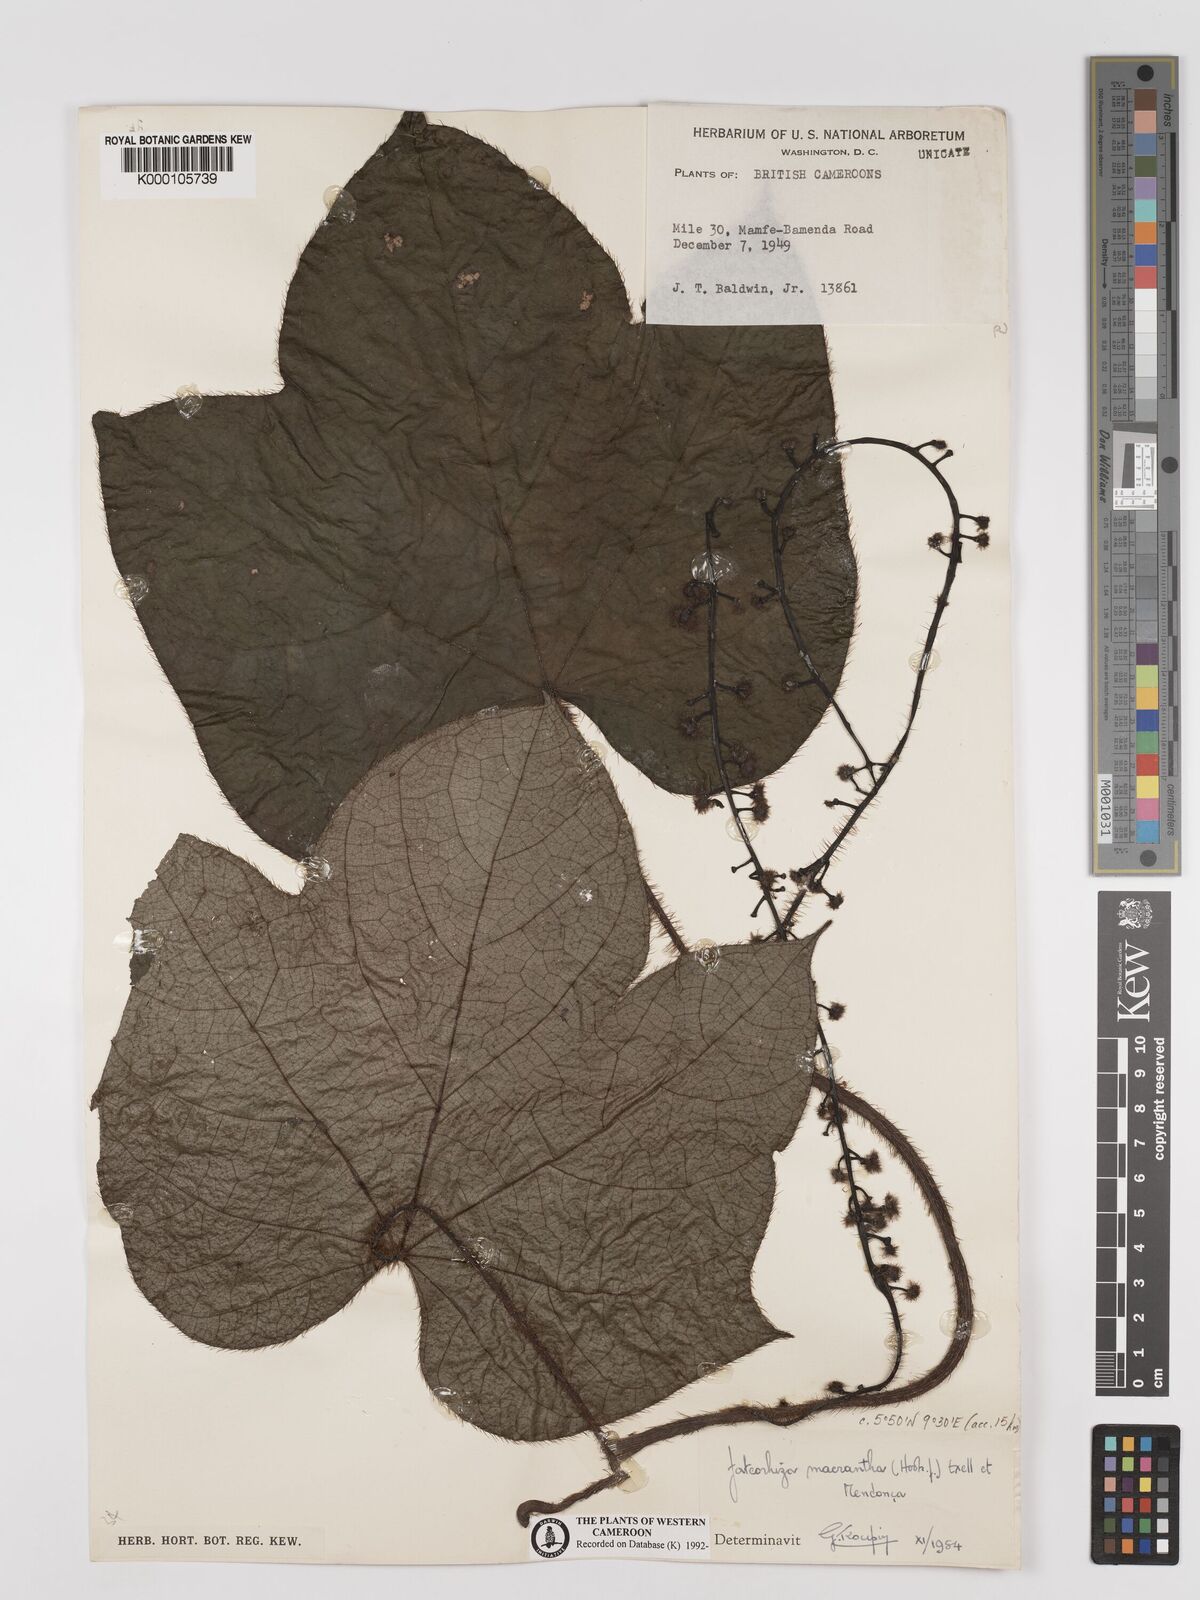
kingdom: Plantae
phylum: Tracheophyta
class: Magnoliopsida
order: Ranunculales
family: Menispermaceae
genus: Jateorhiza
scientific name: Jateorhiza
